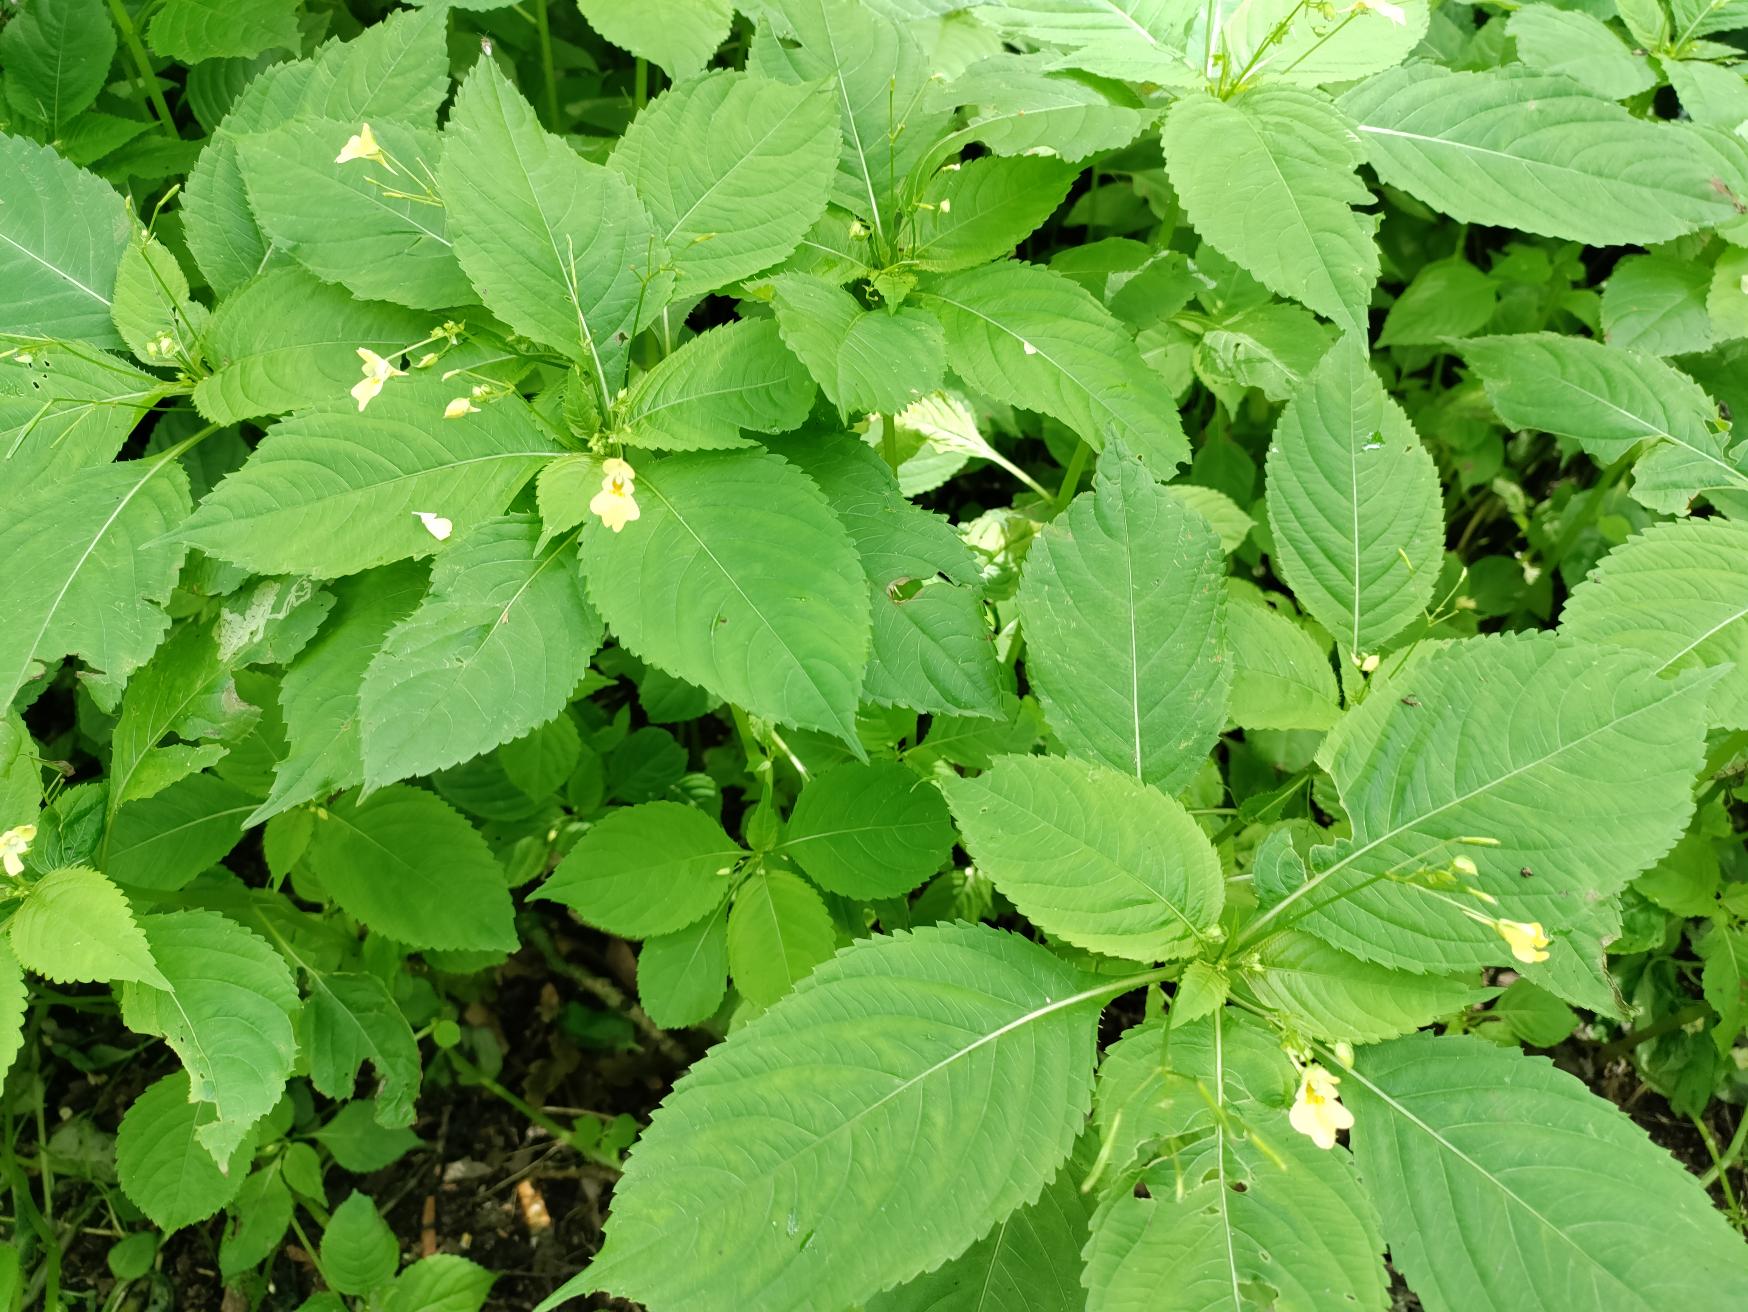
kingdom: Plantae
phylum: Tracheophyta
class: Magnoliopsida
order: Ericales
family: Balsaminaceae
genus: Impatiens
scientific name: Impatiens parviflora
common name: Småblomstret balsamin
